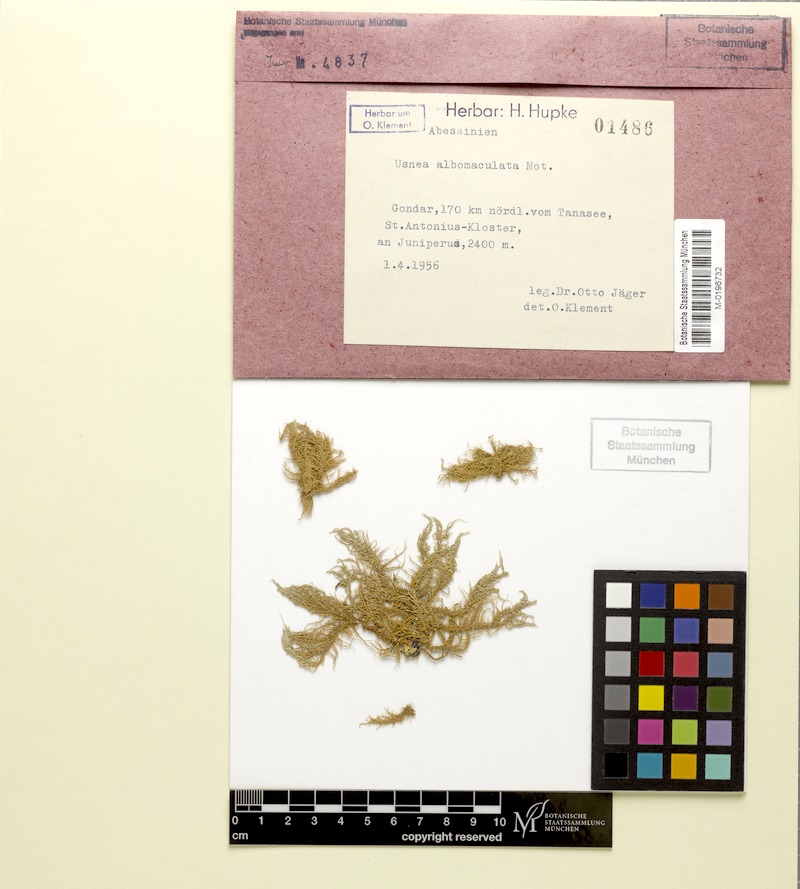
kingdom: Fungi
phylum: Ascomycota
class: Lecanoromycetes
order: Lecanorales
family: Parmeliaceae
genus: Usnea
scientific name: Usnea albomaculata
